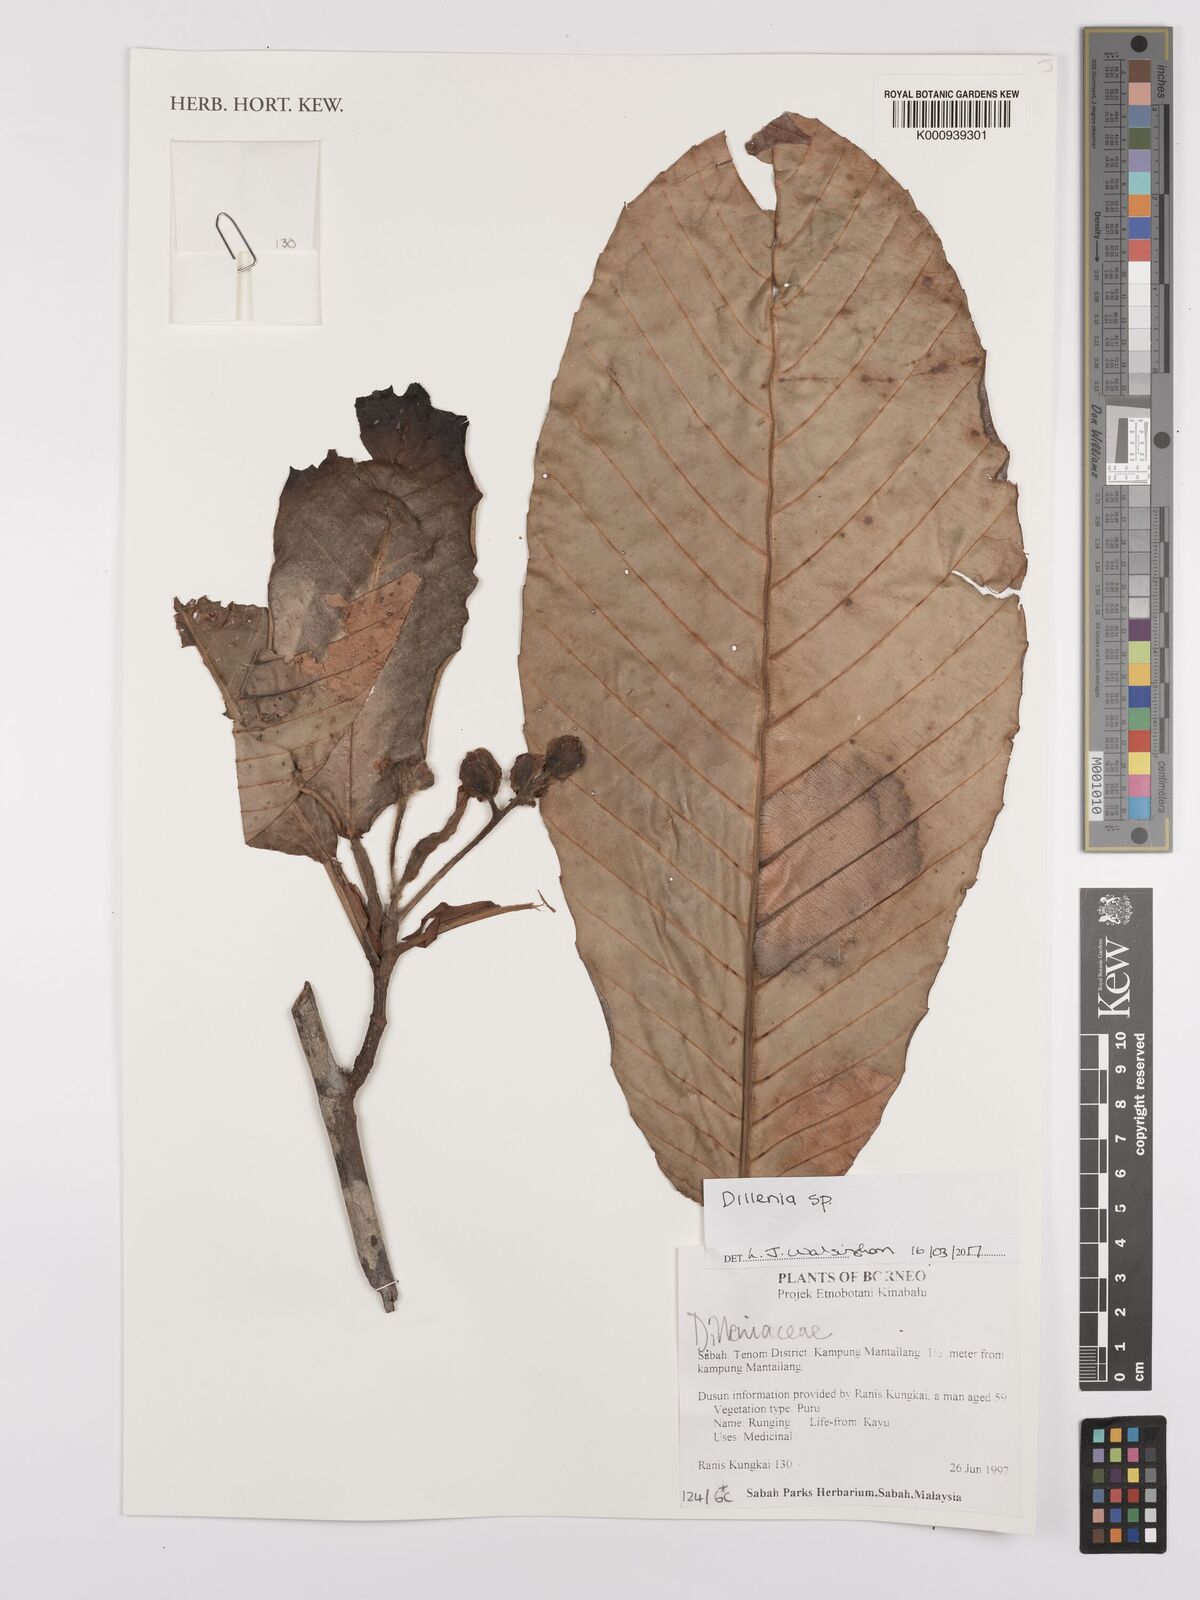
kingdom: Plantae
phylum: Tracheophyta
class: Magnoliopsida
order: Dilleniales
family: Dilleniaceae
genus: Dillenia
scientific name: Dillenia
